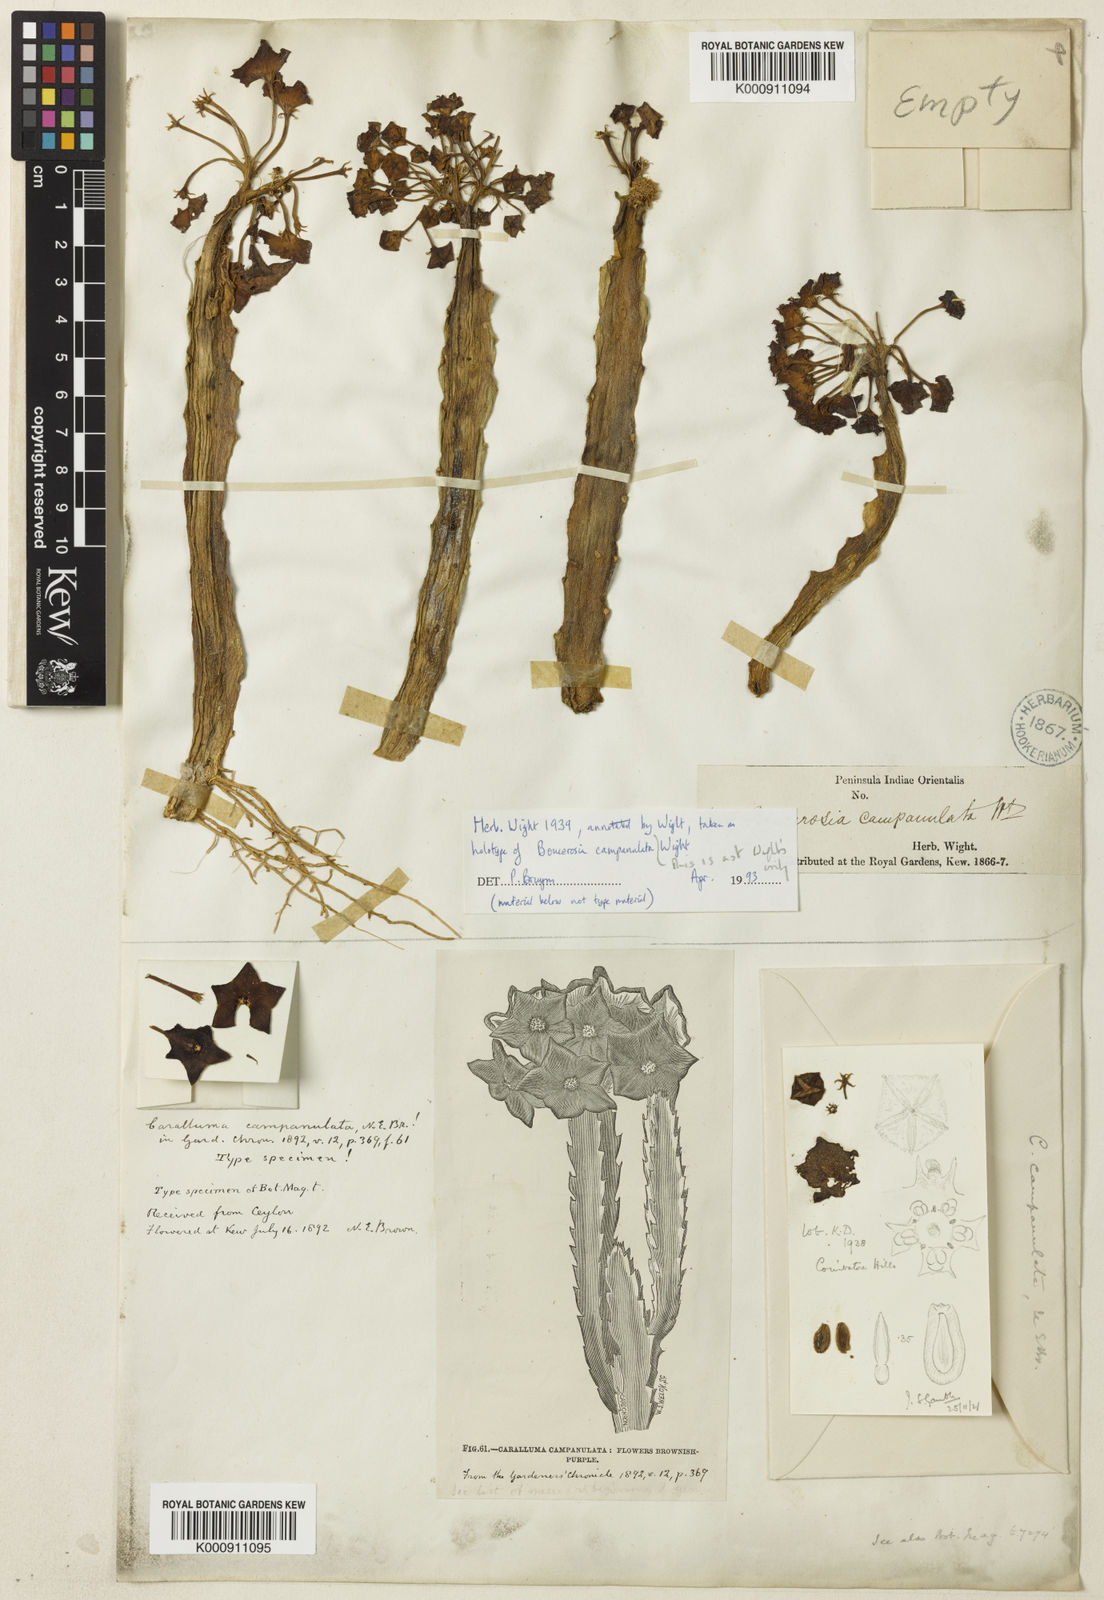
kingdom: Plantae
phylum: Tracheophyta
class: Magnoliopsida
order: Gentianales
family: Apocynaceae
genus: Ceropegia
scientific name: Ceropegia umbellata
